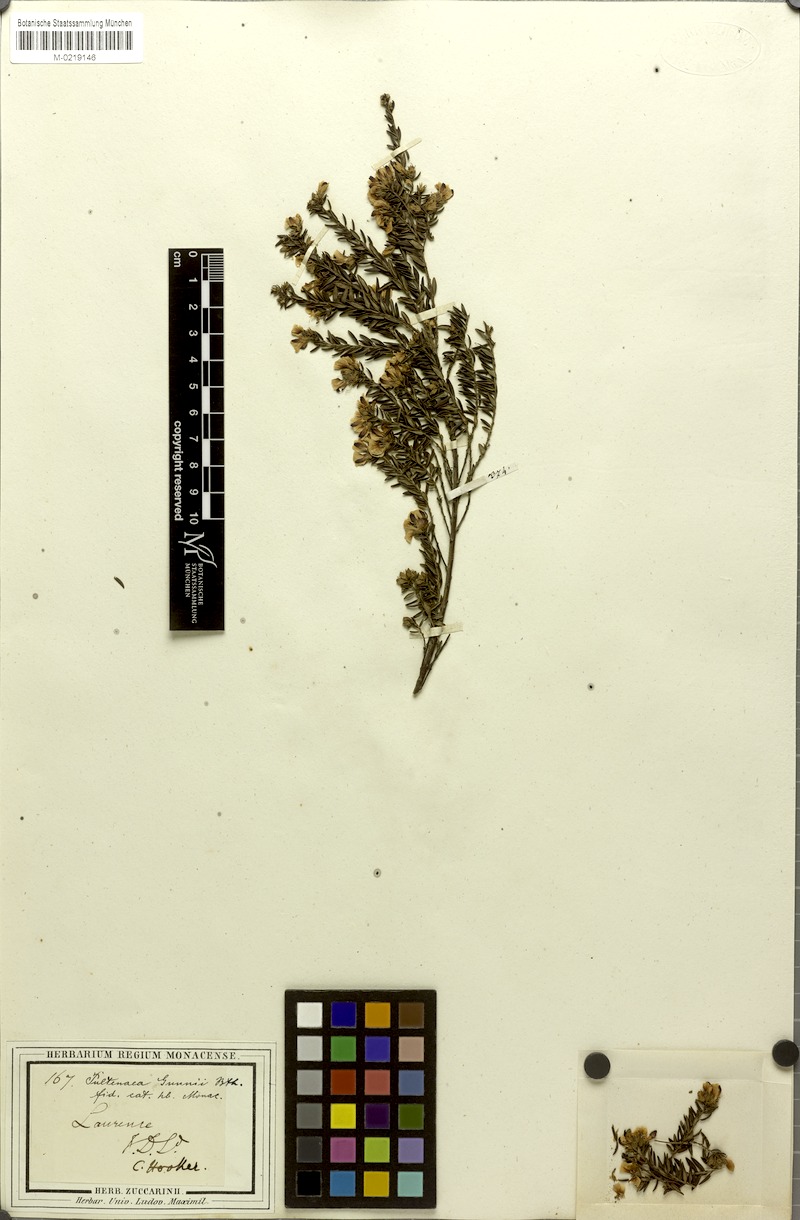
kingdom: Plantae
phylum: Tracheophyta
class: Magnoliopsida
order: Fabales
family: Fabaceae
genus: Pultenaea
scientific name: Pultenaea gunnii
